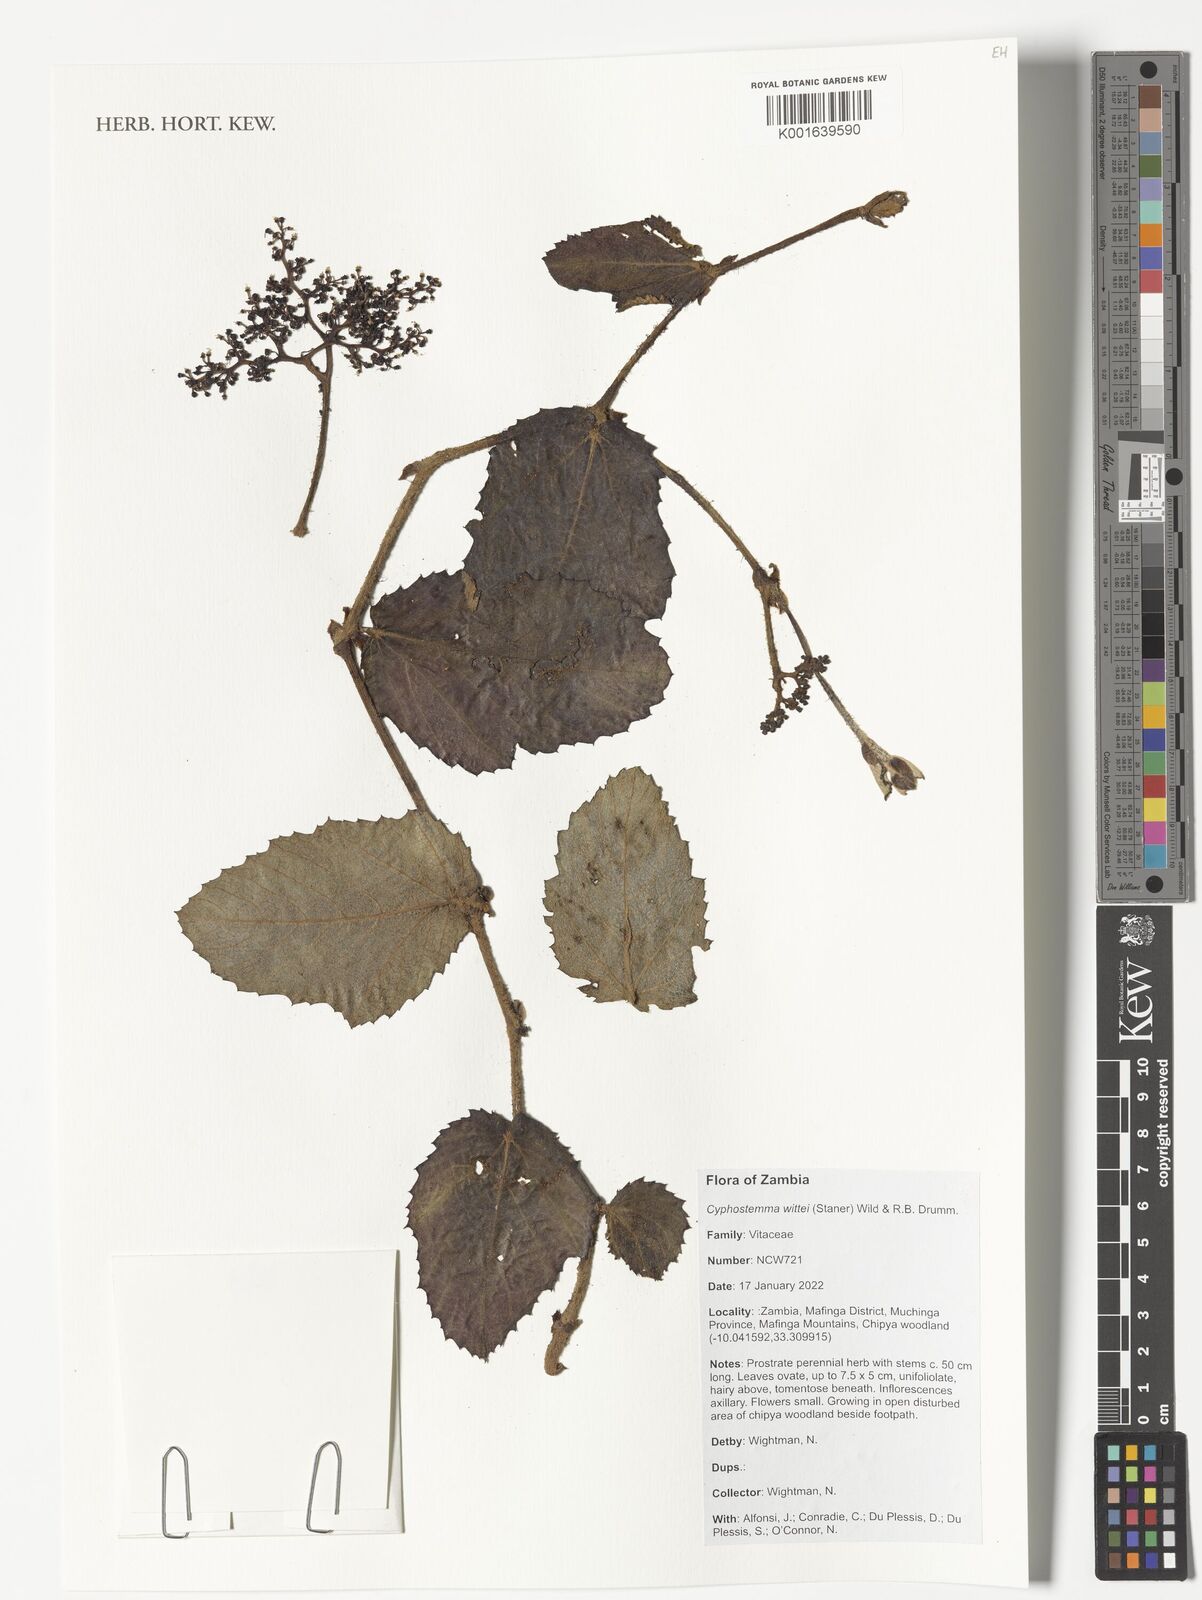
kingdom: Plantae
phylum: Tracheophyta
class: Magnoliopsida
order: Vitales
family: Vitaceae
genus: Cyphostemma
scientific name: Cyphostemma wittei
